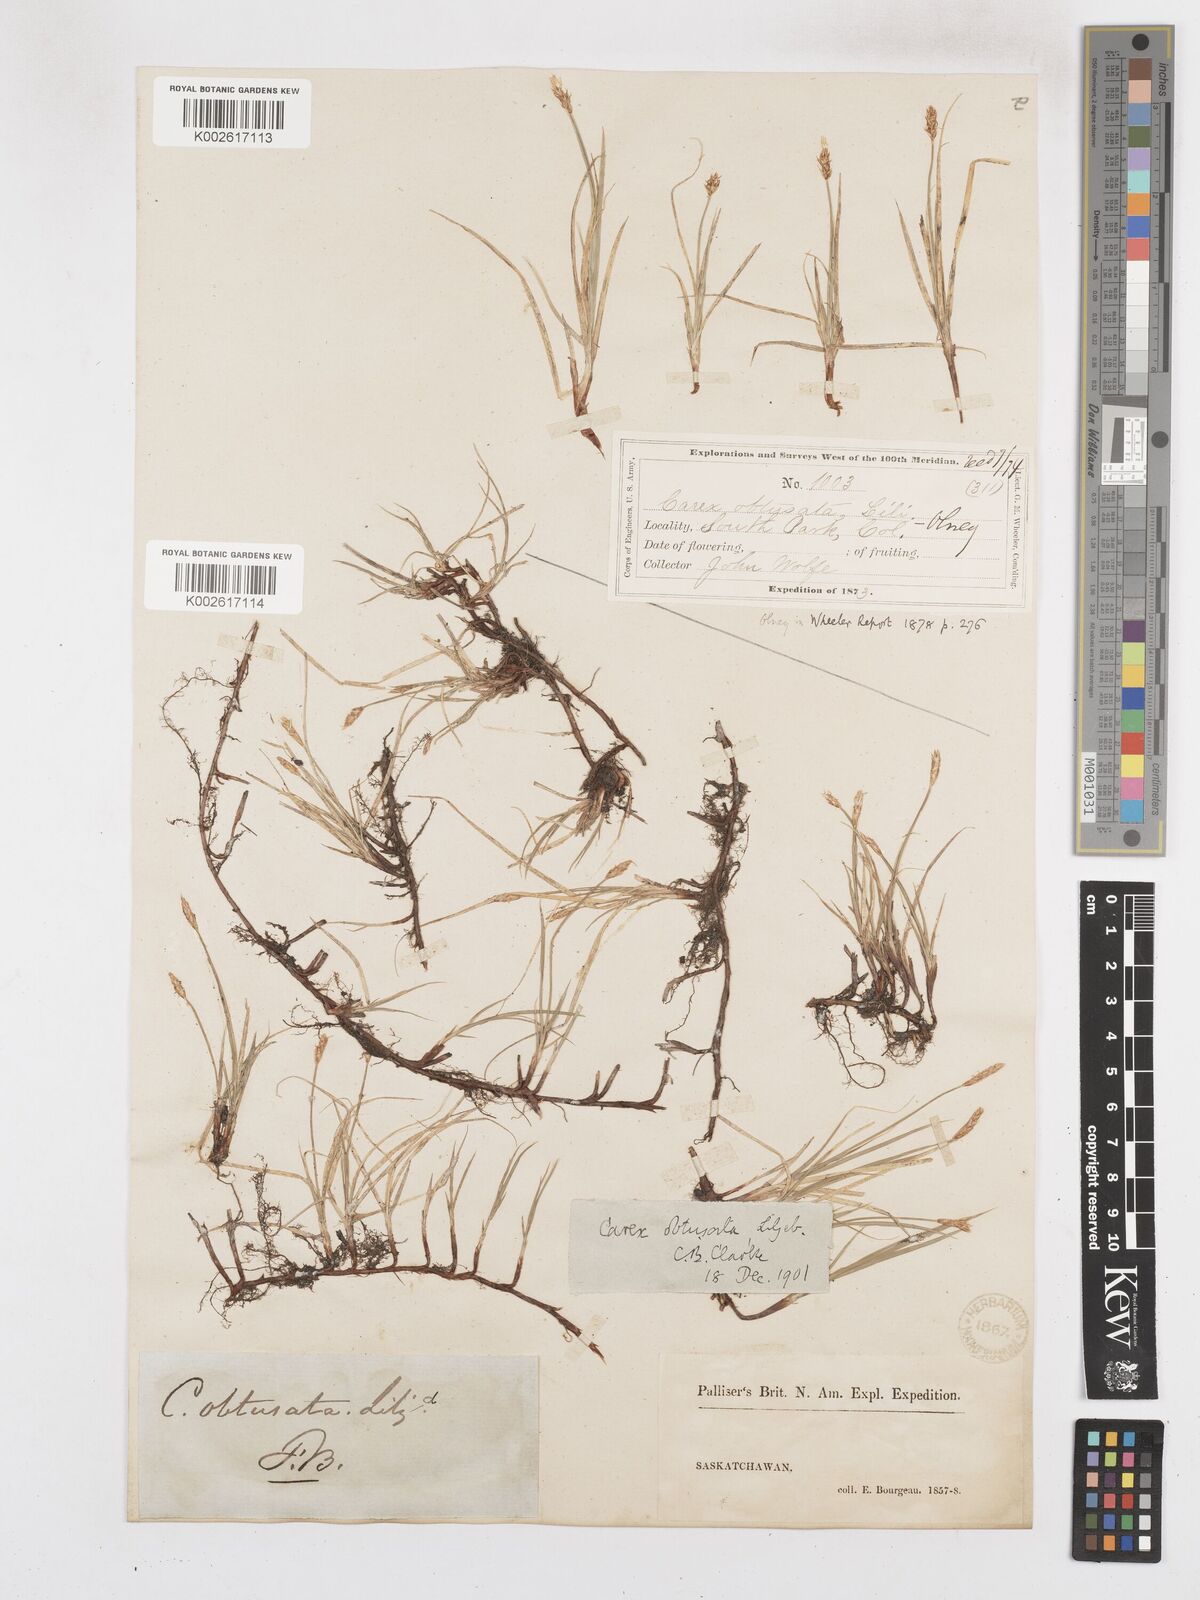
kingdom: Plantae
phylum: Tracheophyta
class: Liliopsida
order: Poales
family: Cyperaceae
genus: Carex
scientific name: Carex obtusata
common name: Blunt sedge
